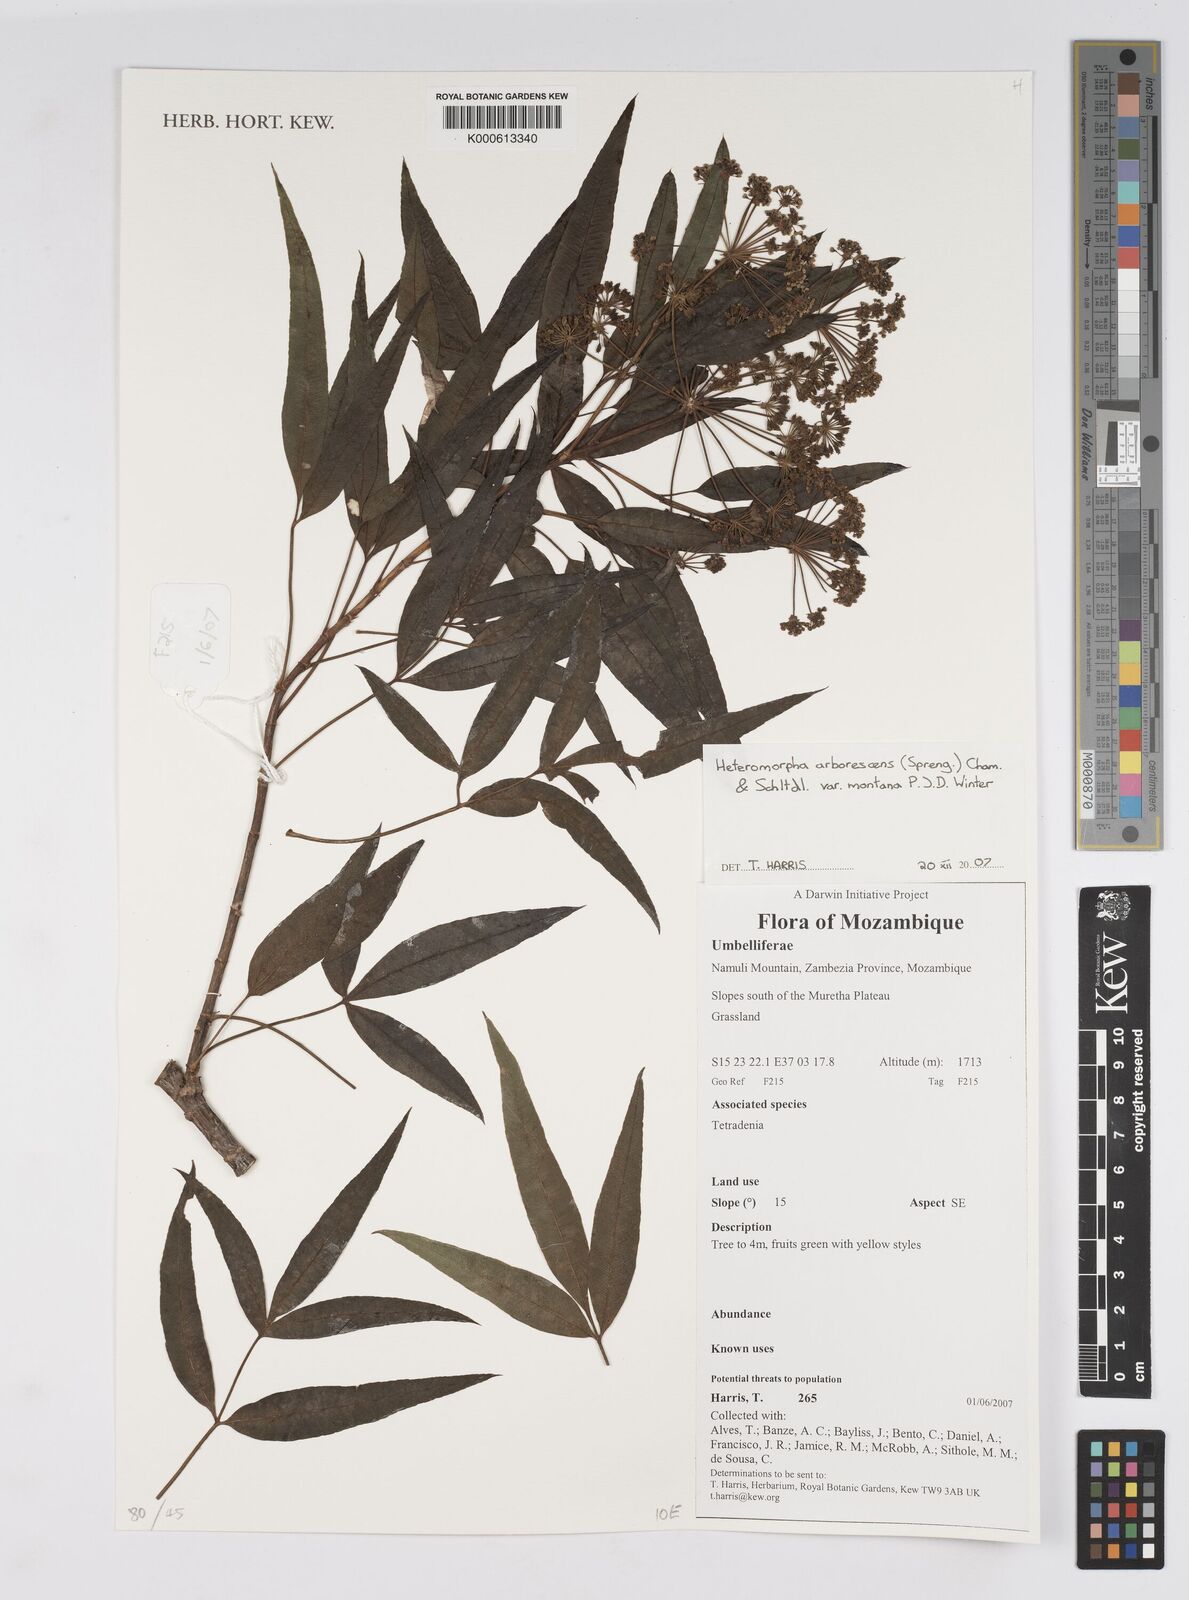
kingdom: Plantae
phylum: Tracheophyta
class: Magnoliopsida
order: Apiales
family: Apiaceae
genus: Heteromorpha
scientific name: Heteromorpha arborescens
